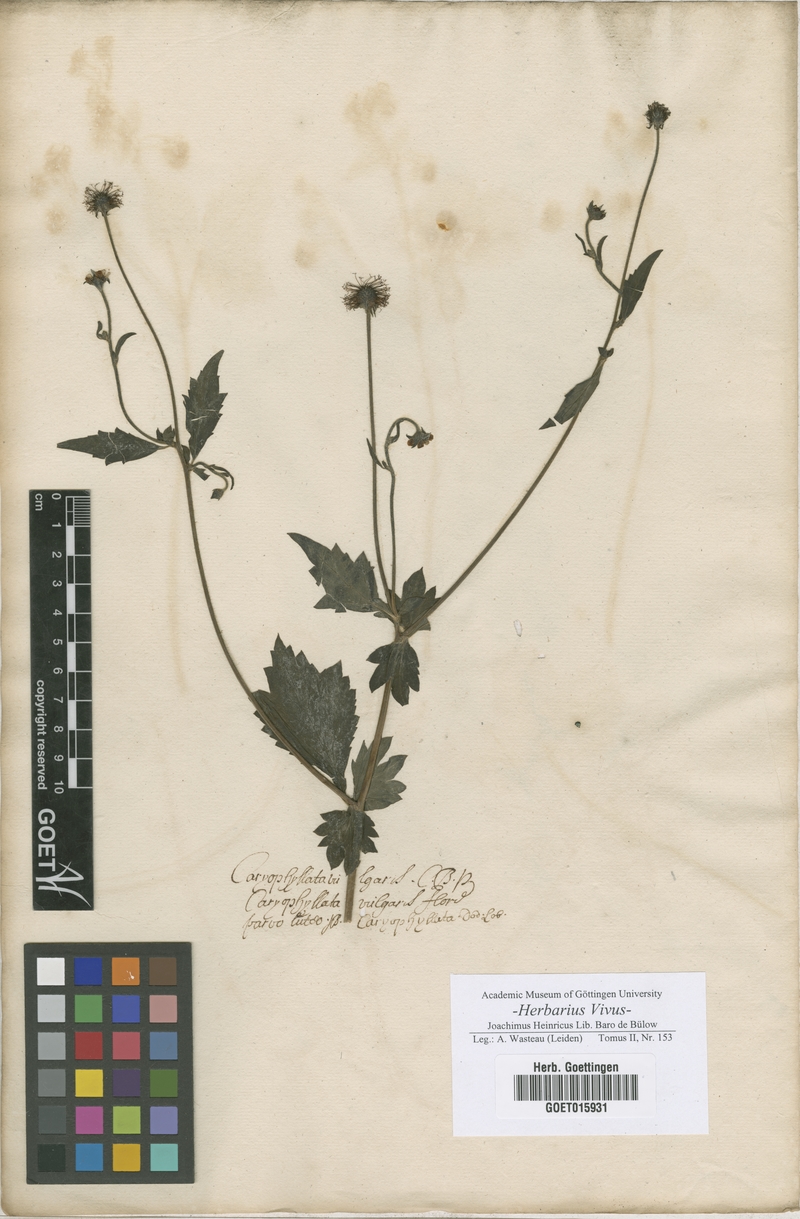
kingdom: Plantae
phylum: Tracheophyta
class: Magnoliopsida
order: Rosales
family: Rosaceae
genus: Geum
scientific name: Geum urbanum
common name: Wood avens
